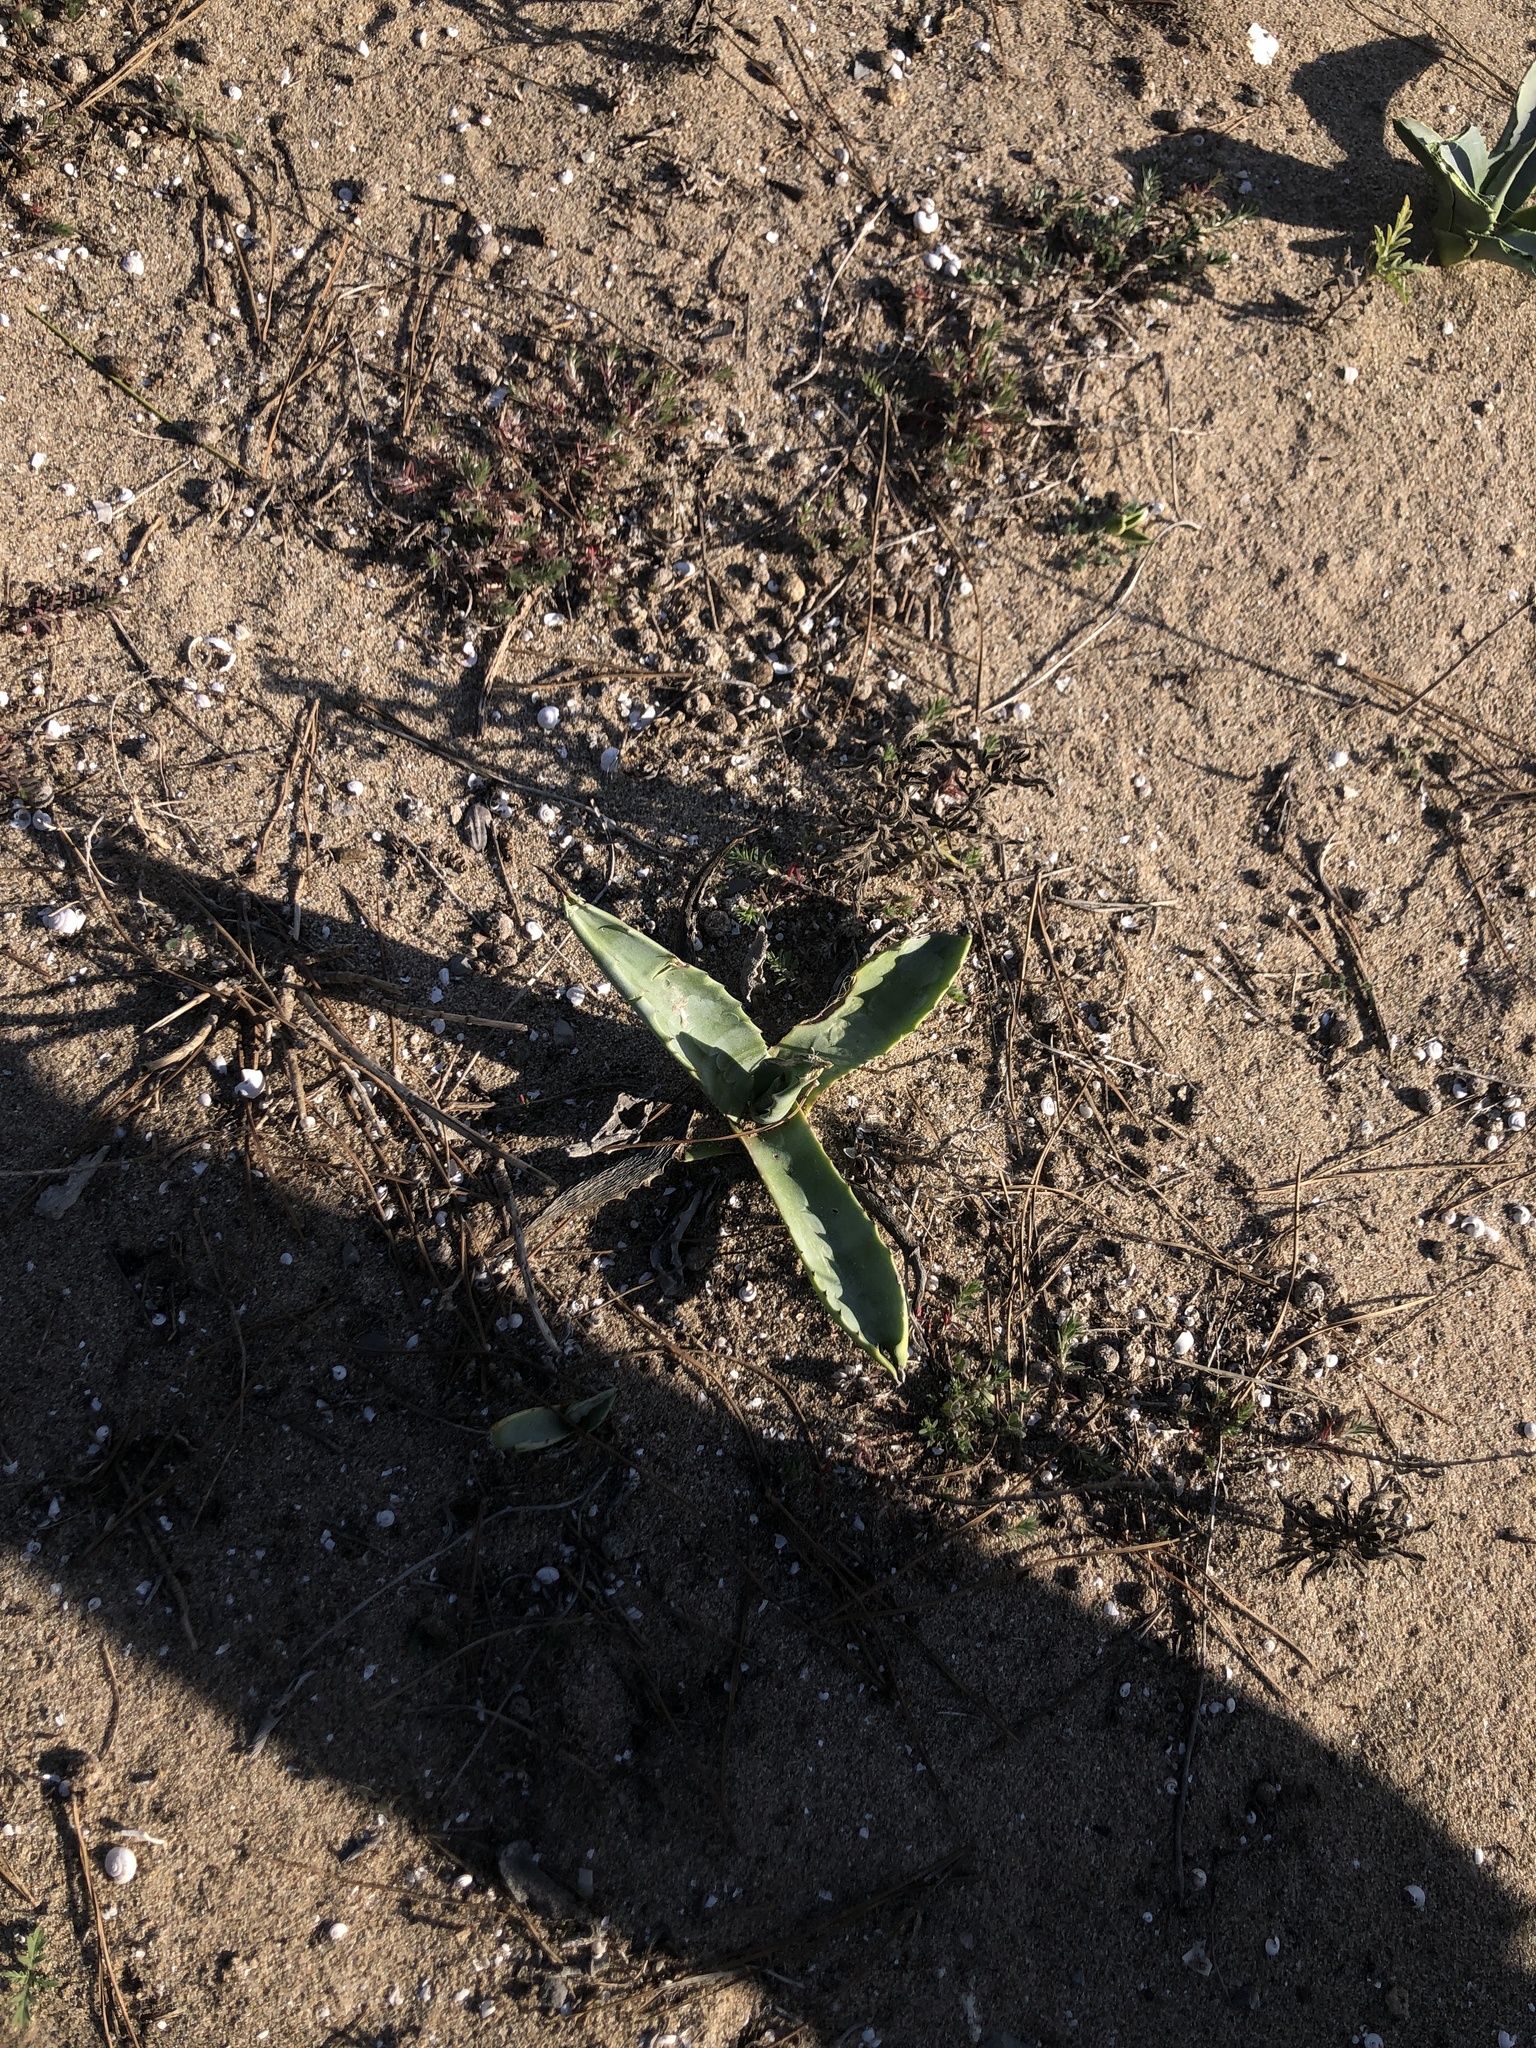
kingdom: Plantae
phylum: Tracheophyta
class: Liliopsida
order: Asparagales
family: Asparagaceae
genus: Agave
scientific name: Agave americana
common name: Centuryplant
